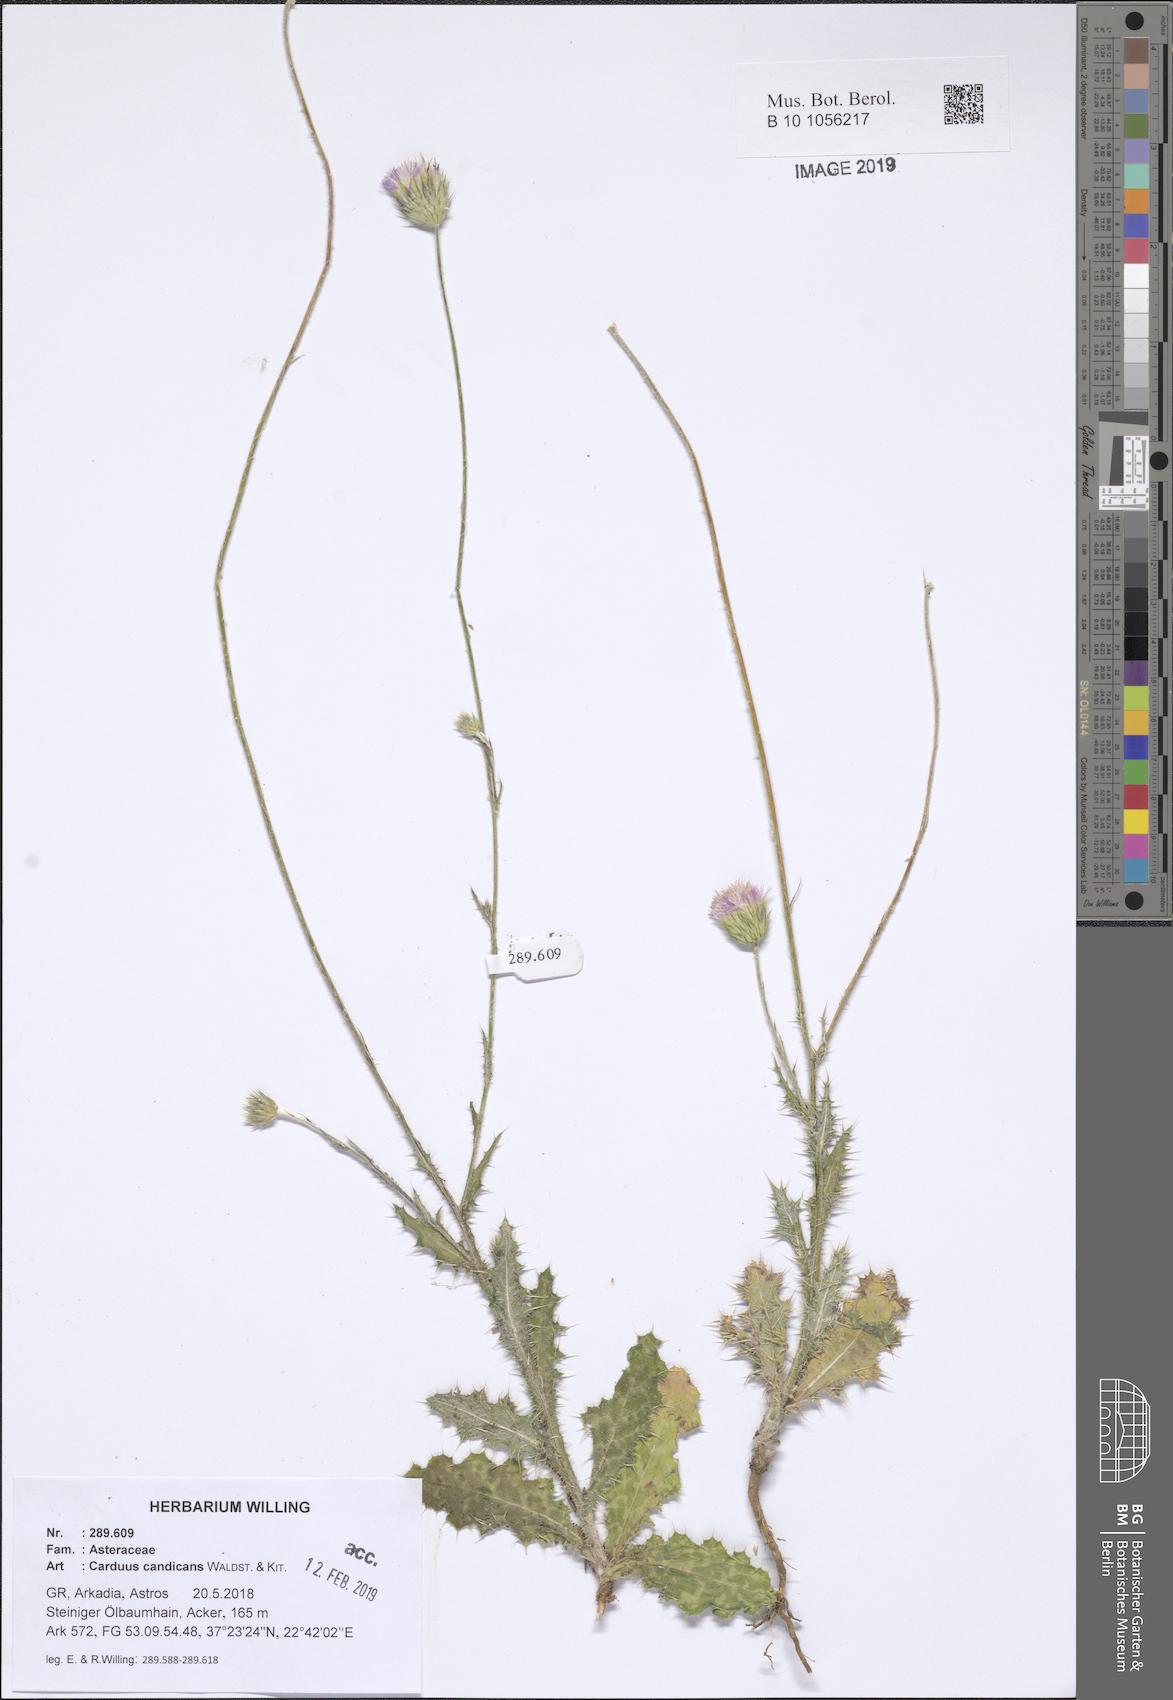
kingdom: Plantae
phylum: Tracheophyta
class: Magnoliopsida
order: Asterales
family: Asteraceae
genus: Carduus
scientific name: Carduus candicans
